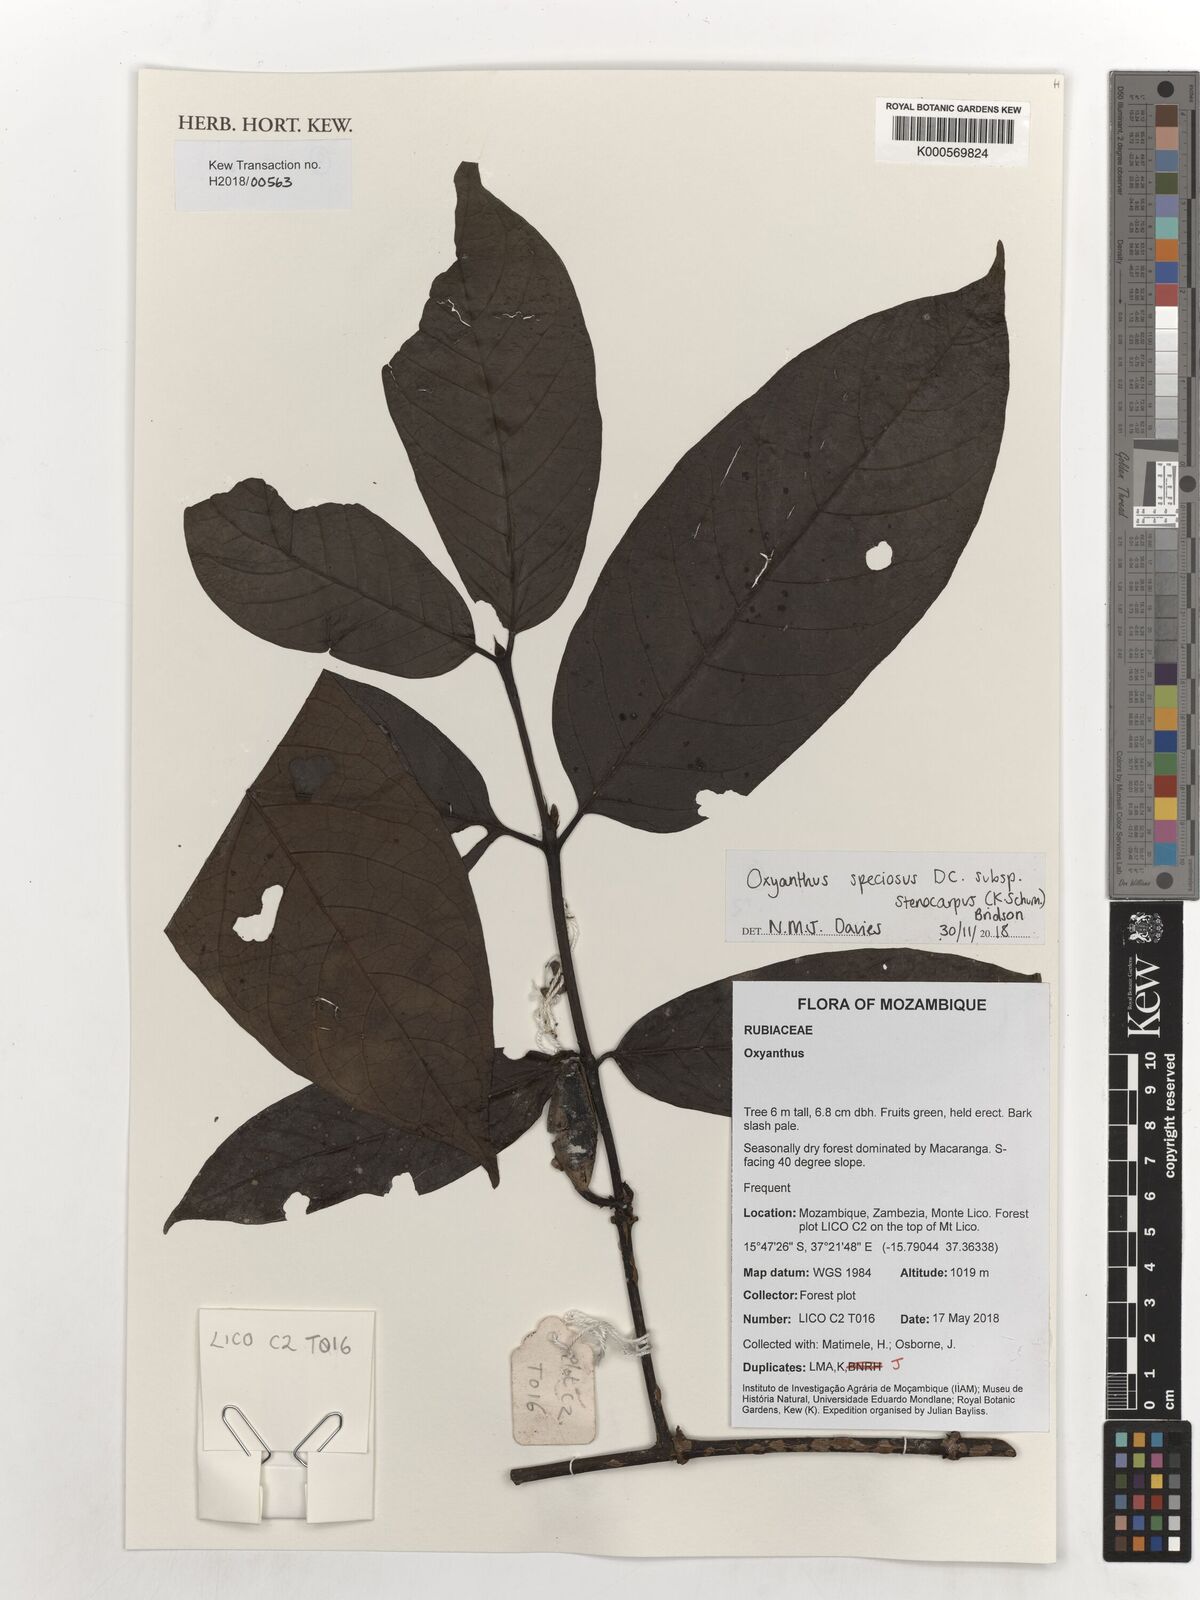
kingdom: Plantae
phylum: Tracheophyta
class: Magnoliopsida
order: Gentianales
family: Rubiaceae
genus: Oxyanthus
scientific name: Oxyanthus speciosus
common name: Whipstick loquat
